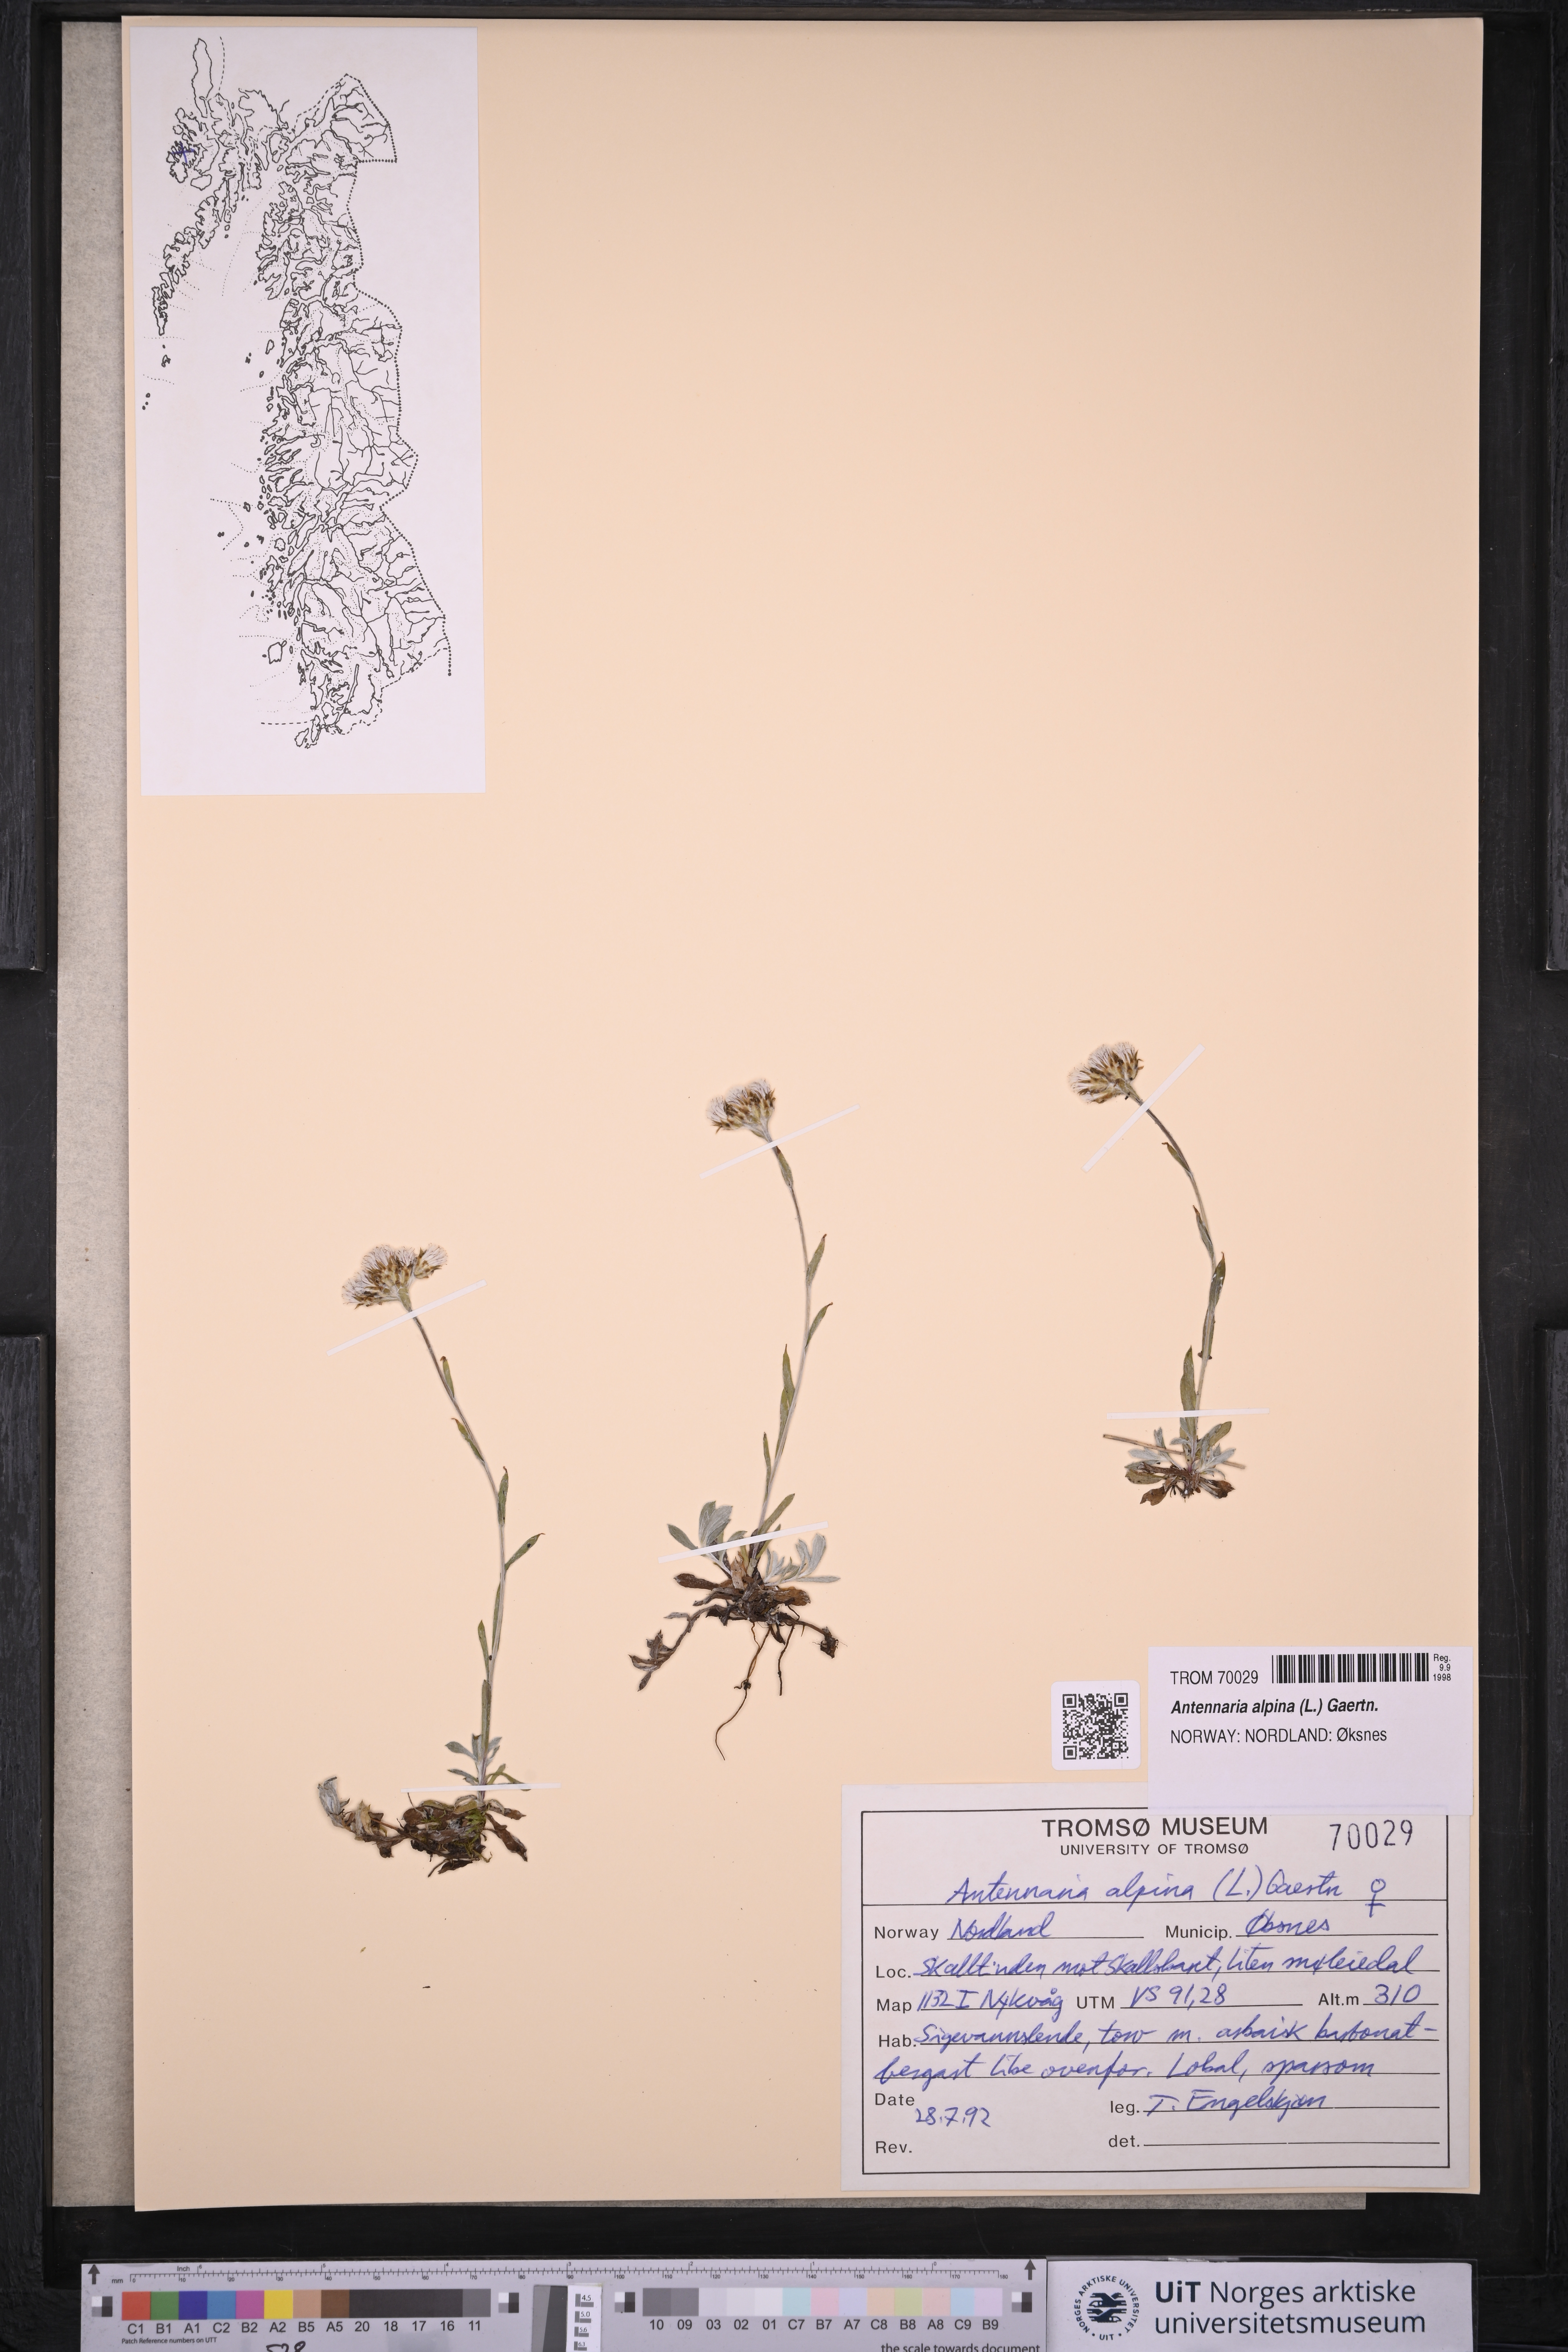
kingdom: Plantae
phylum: Tracheophyta
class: Magnoliopsida
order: Asterales
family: Asteraceae
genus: Antennaria
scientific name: Antennaria alpina
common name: Alpine pussytoes
